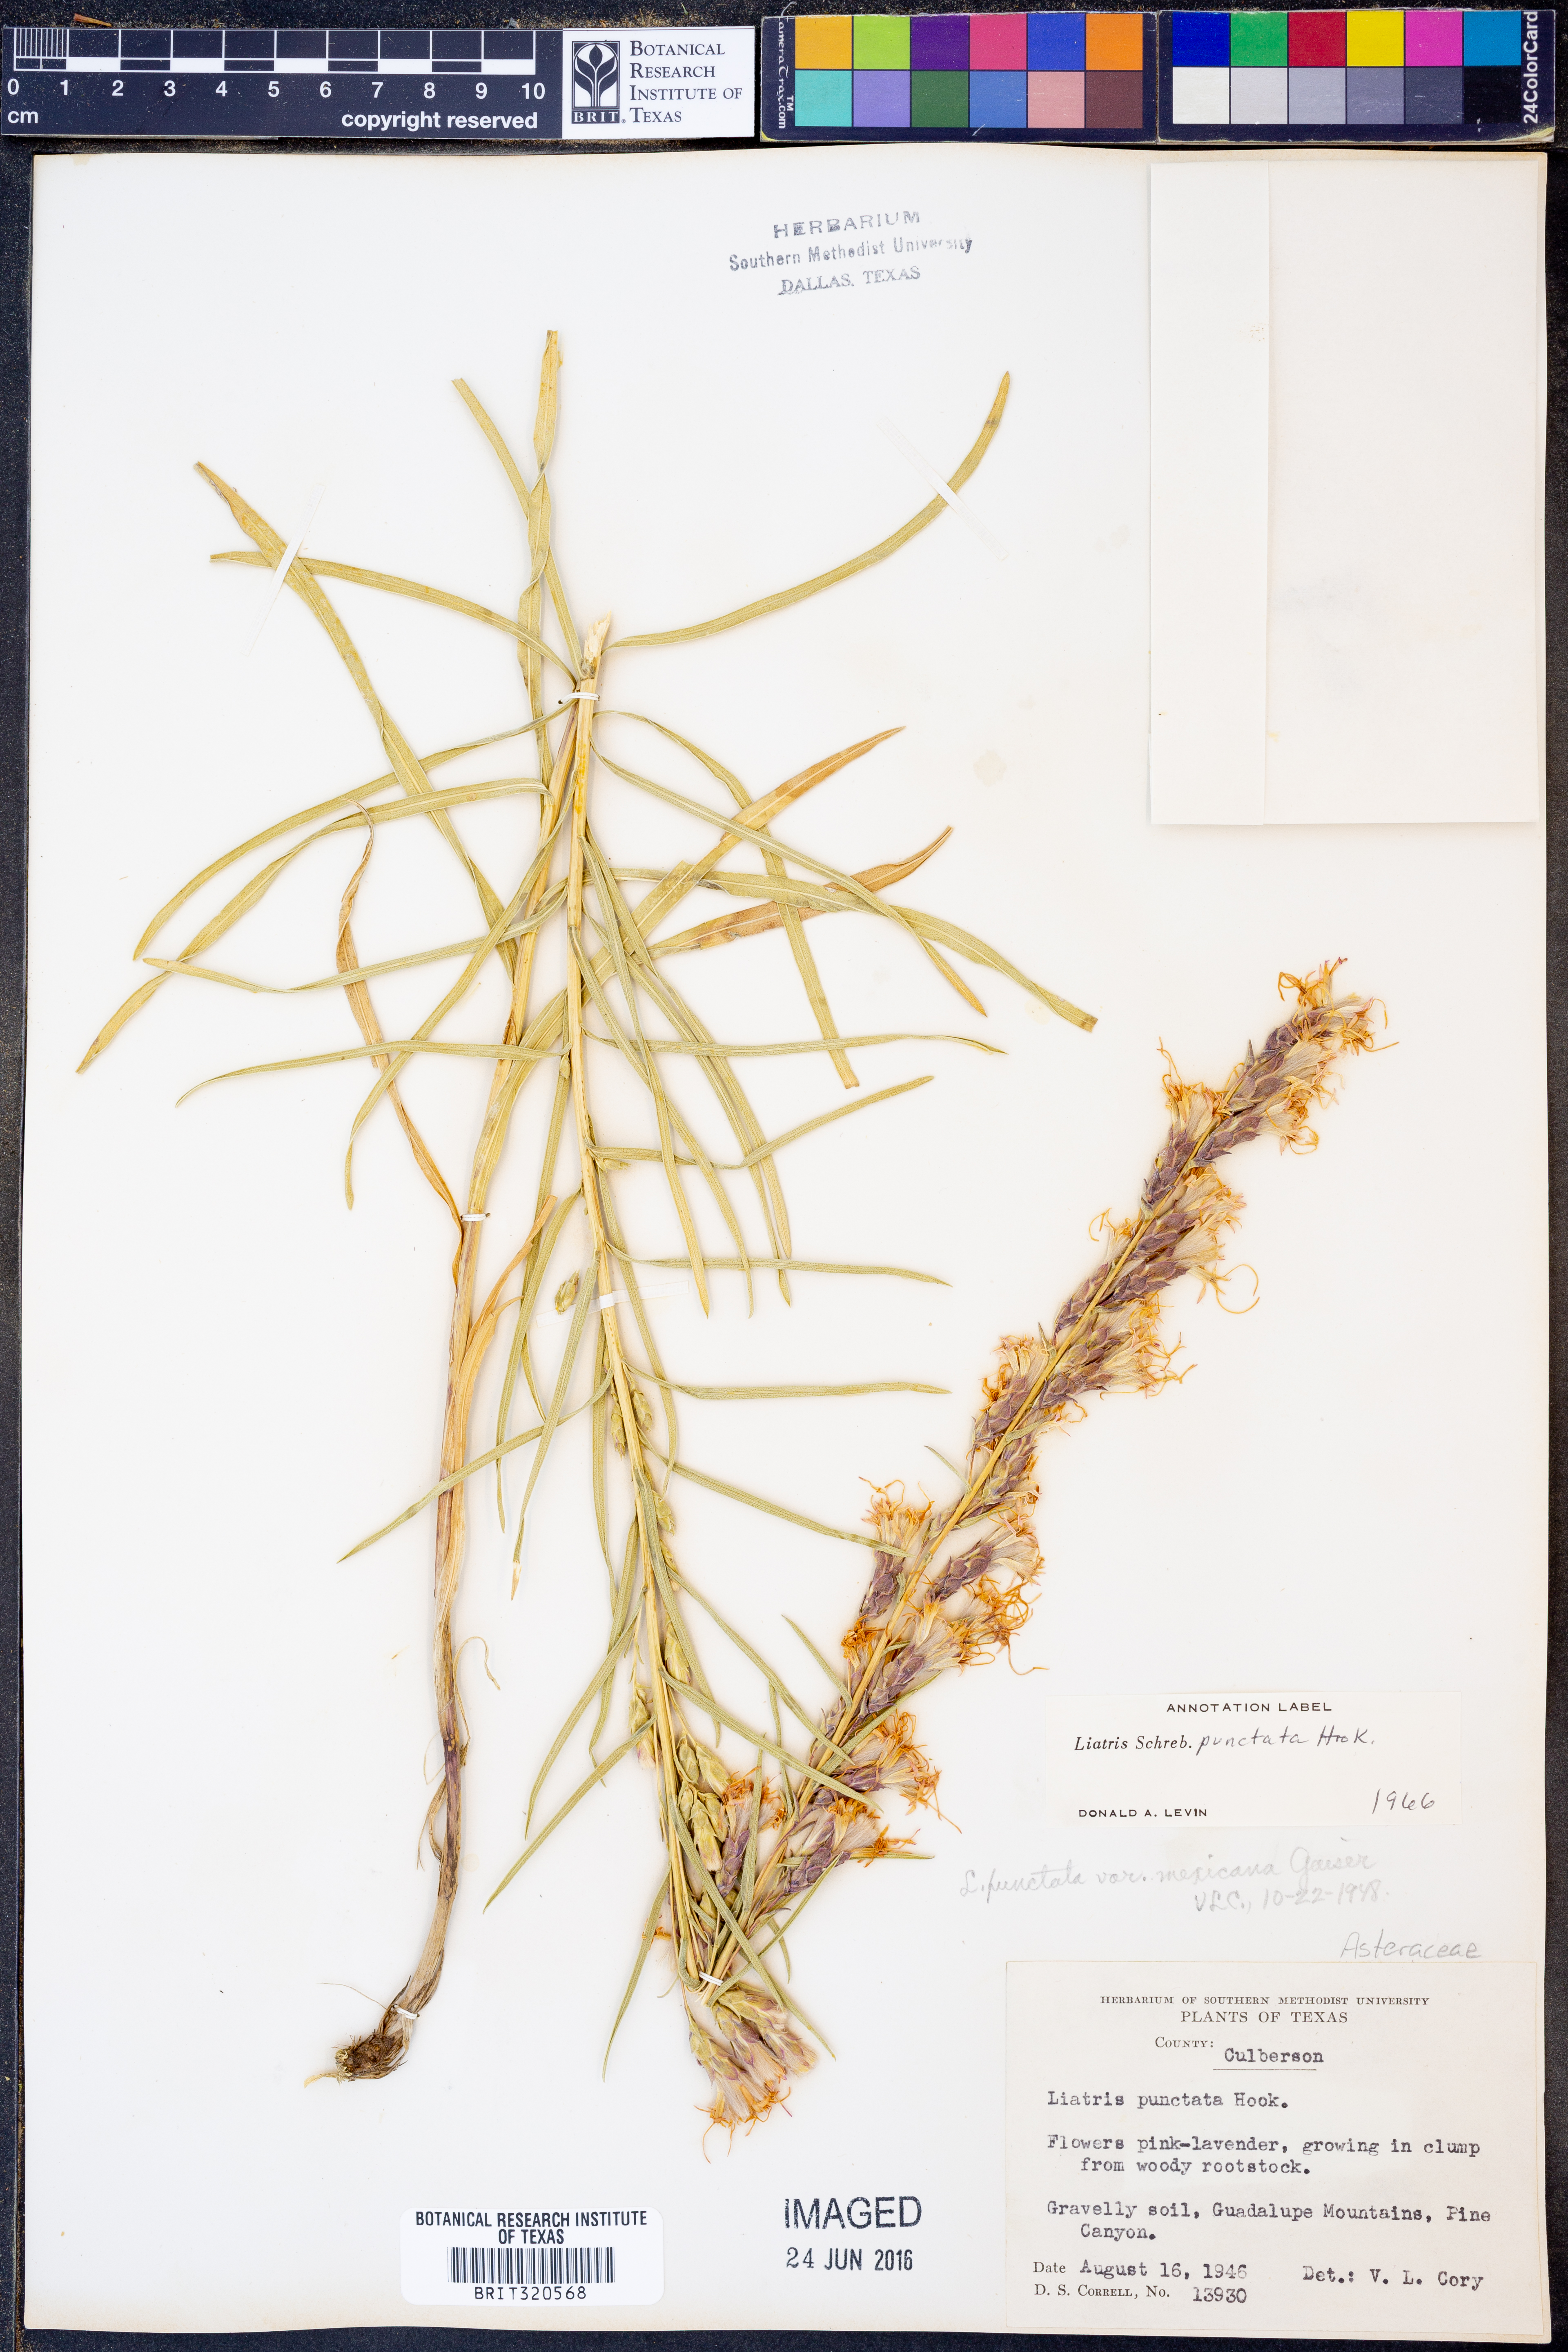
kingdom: Plantae
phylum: Tracheophyta
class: Magnoliopsida
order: Asterales
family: Asteraceae
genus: Liatris
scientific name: Liatris punctata
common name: Dotted gayfeather
